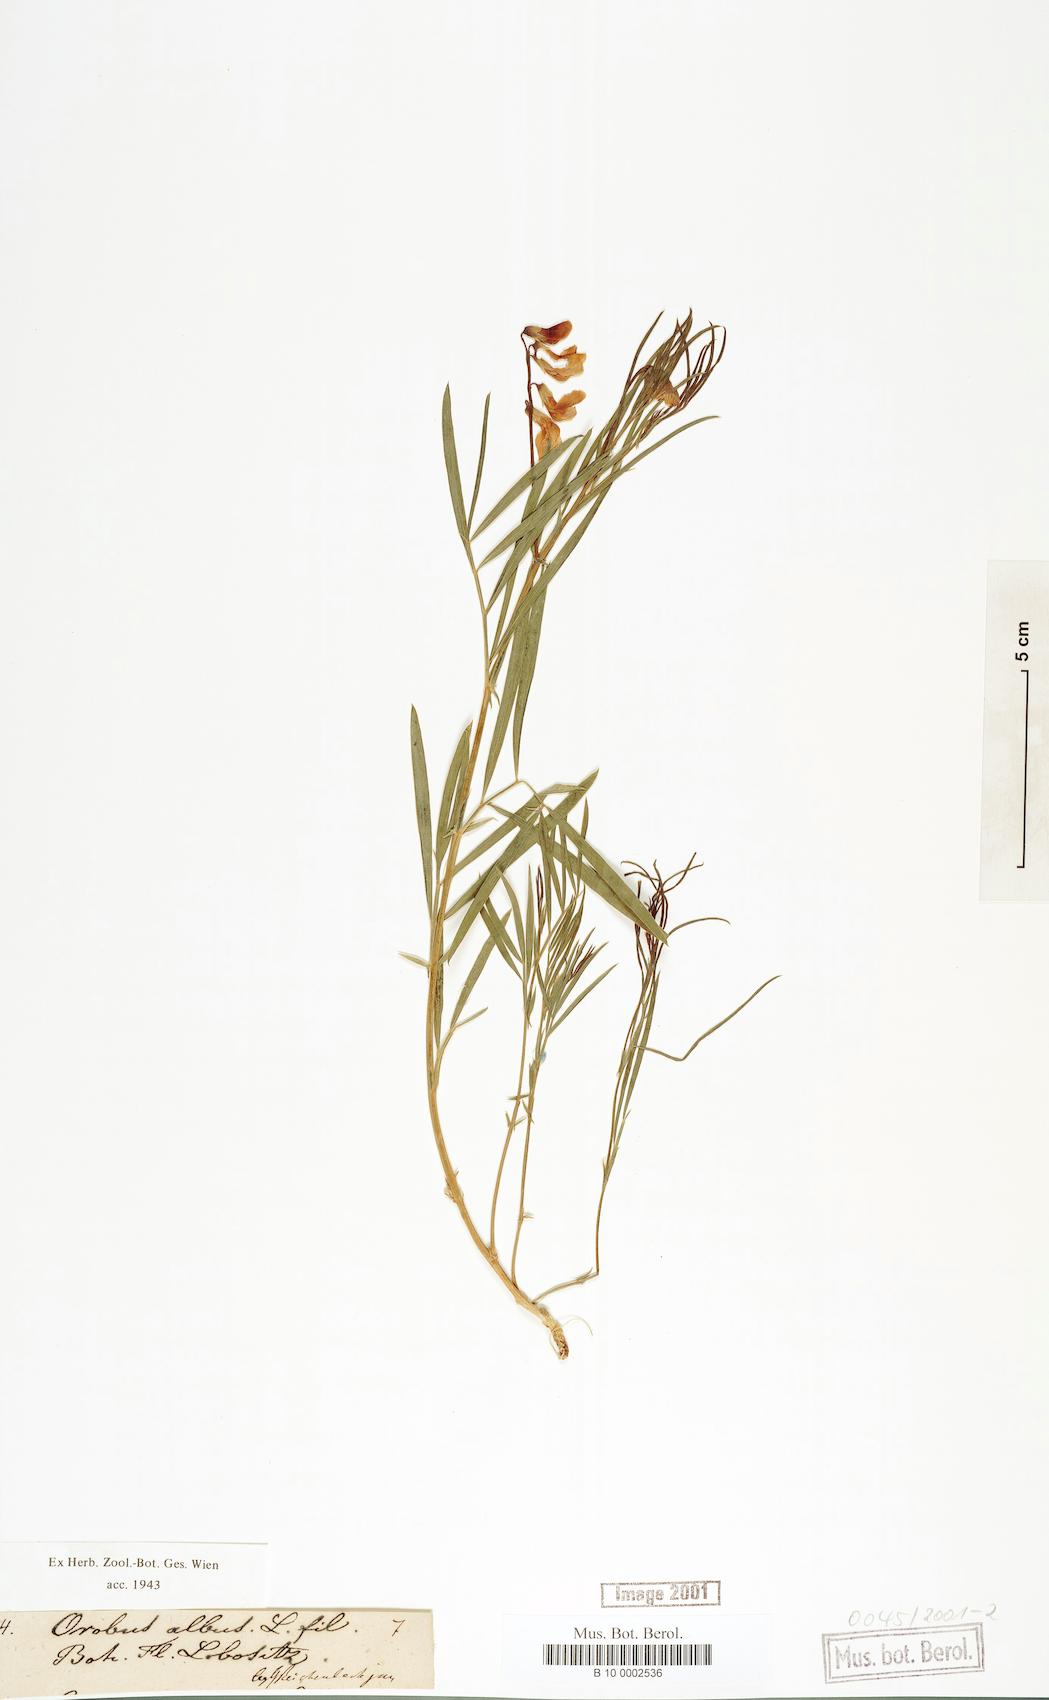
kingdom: Plantae
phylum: Tracheophyta
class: Magnoliopsida
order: Fabales
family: Fabaceae
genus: Lathyrus
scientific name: Lathyrus
